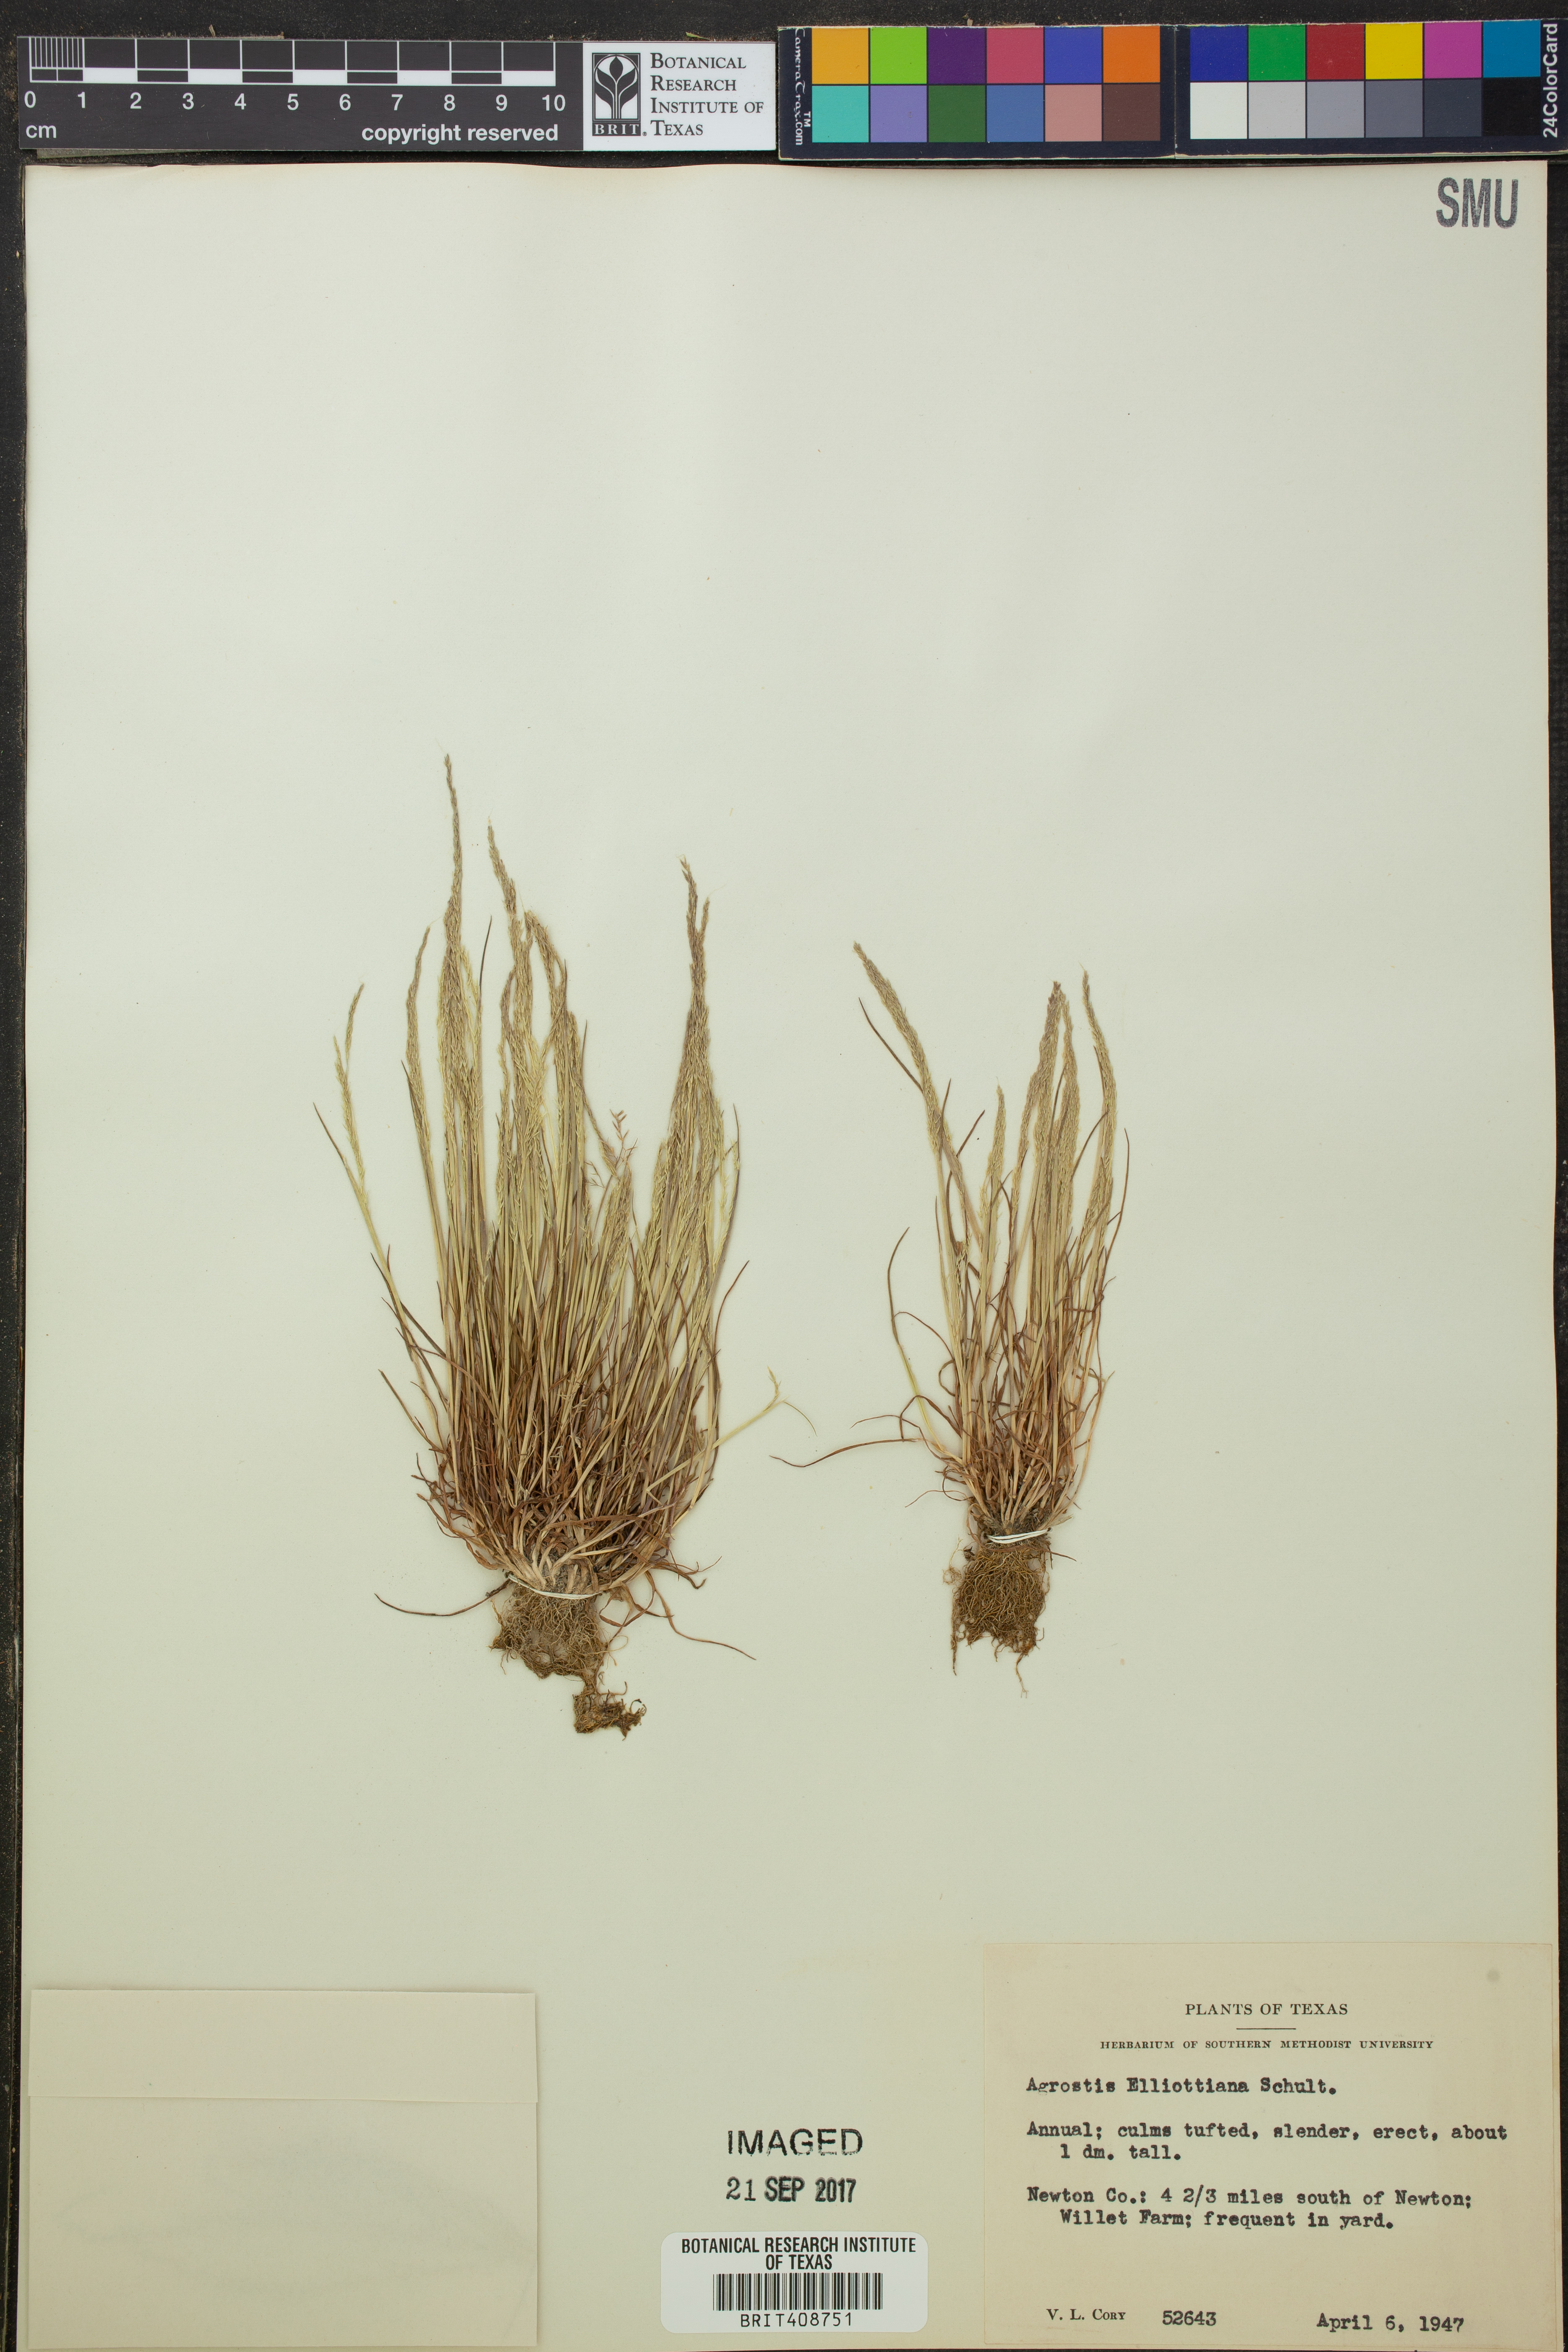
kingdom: Plantae
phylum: Tracheophyta
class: Liliopsida
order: Poales
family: Poaceae
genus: Agrostis
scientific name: Agrostis elliottiana
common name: Elliott's bent
